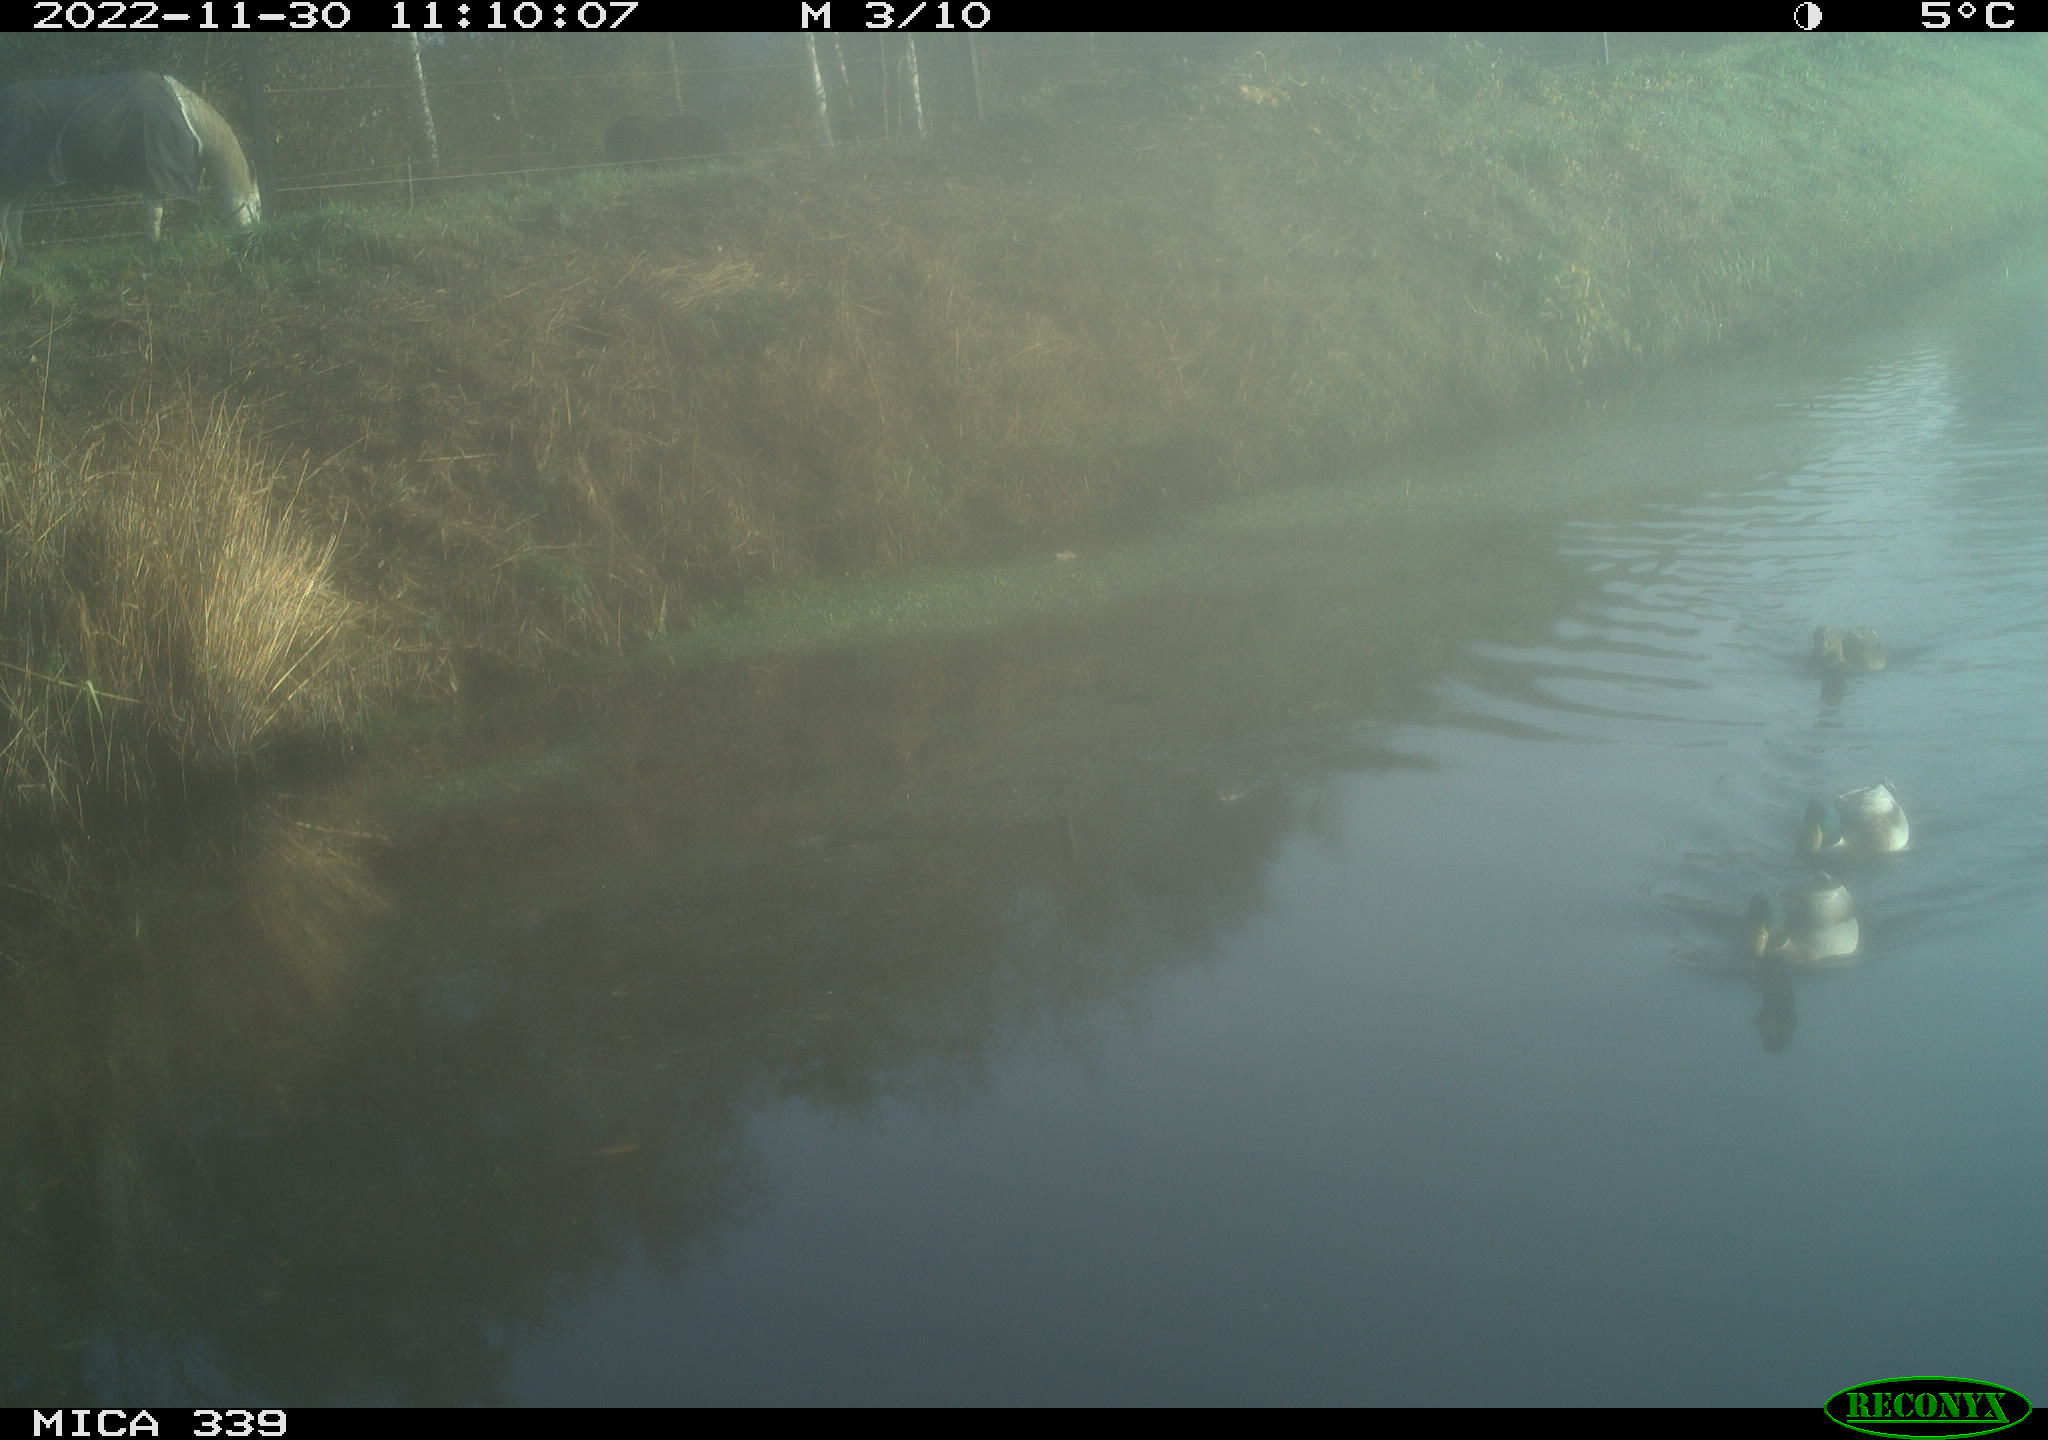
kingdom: Animalia
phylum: Chordata
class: Aves
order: Anseriformes
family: Anatidae
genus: Anas
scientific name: Anas platyrhynchos
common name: Mallard
